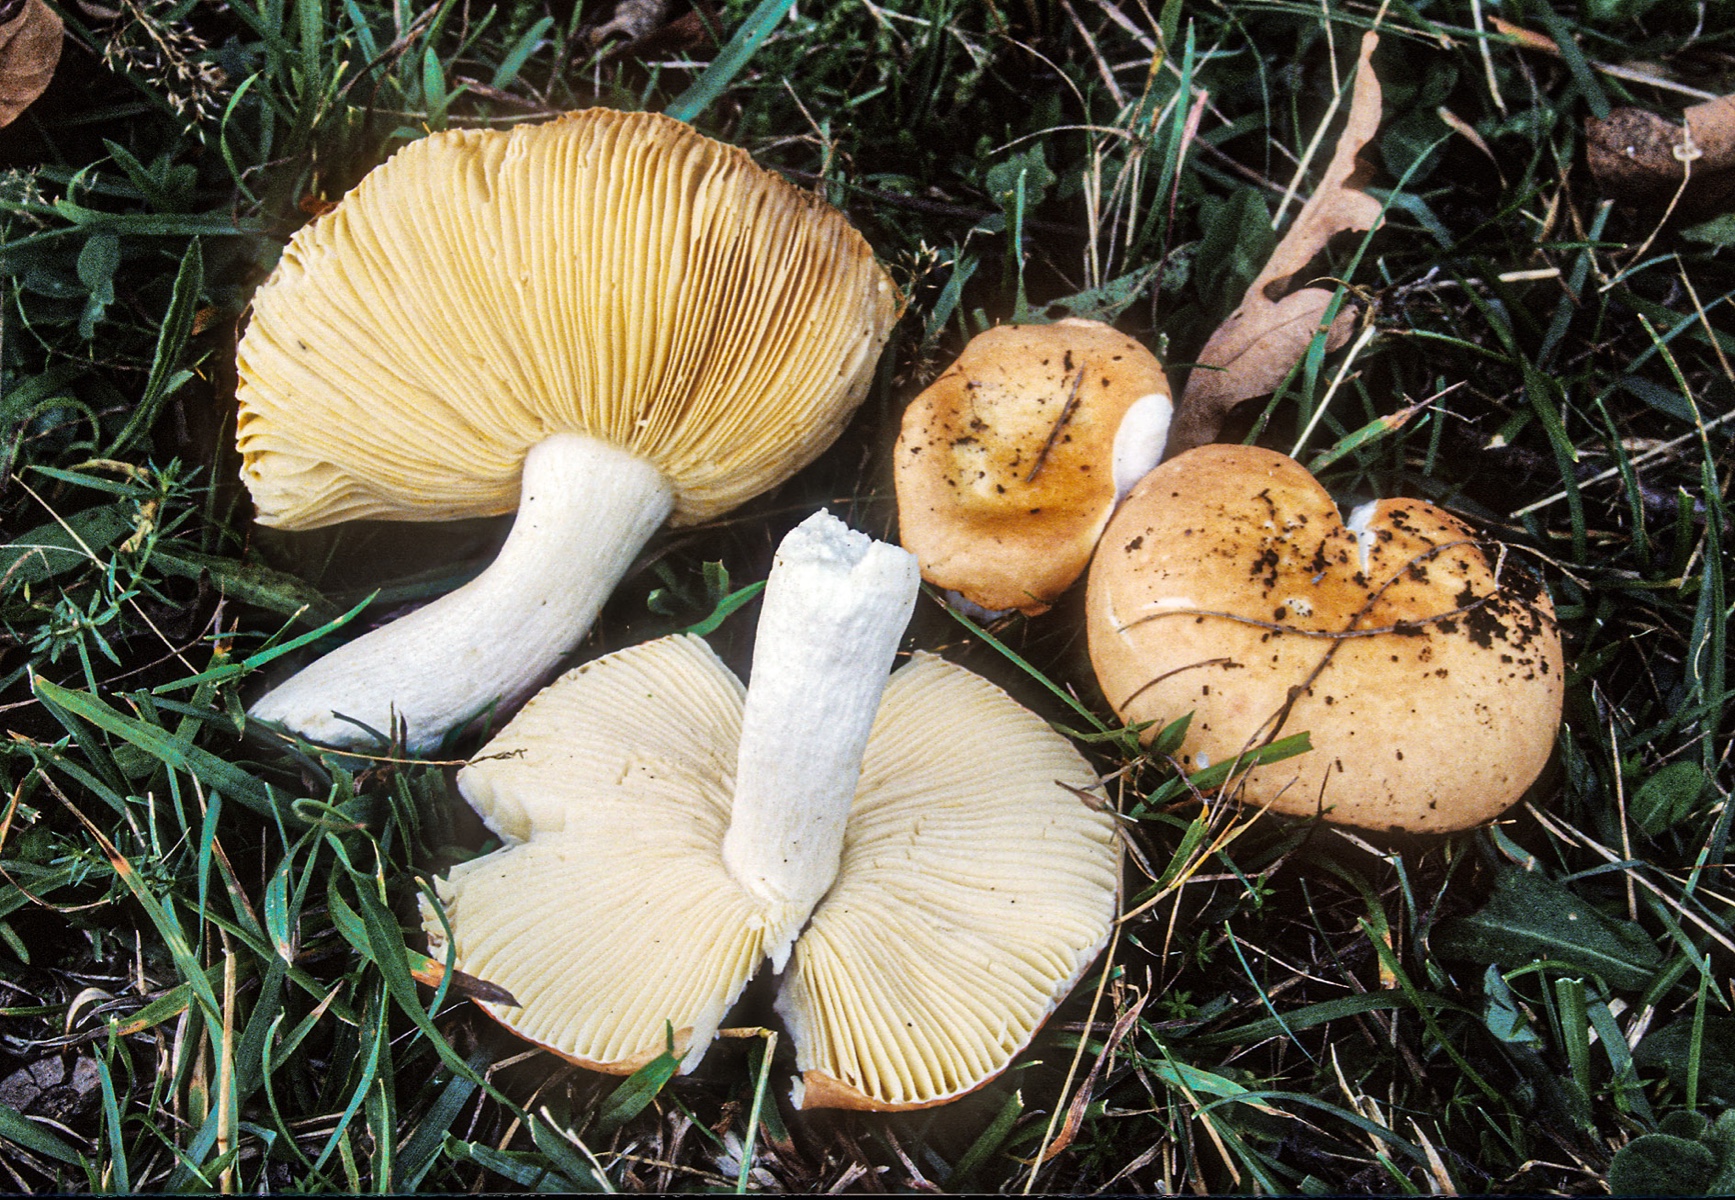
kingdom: Fungi
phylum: Basidiomycota
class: Agaricomycetes
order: Russulales
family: Russulaceae
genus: Russula
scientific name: Russula decipiens
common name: grånende skørhat
